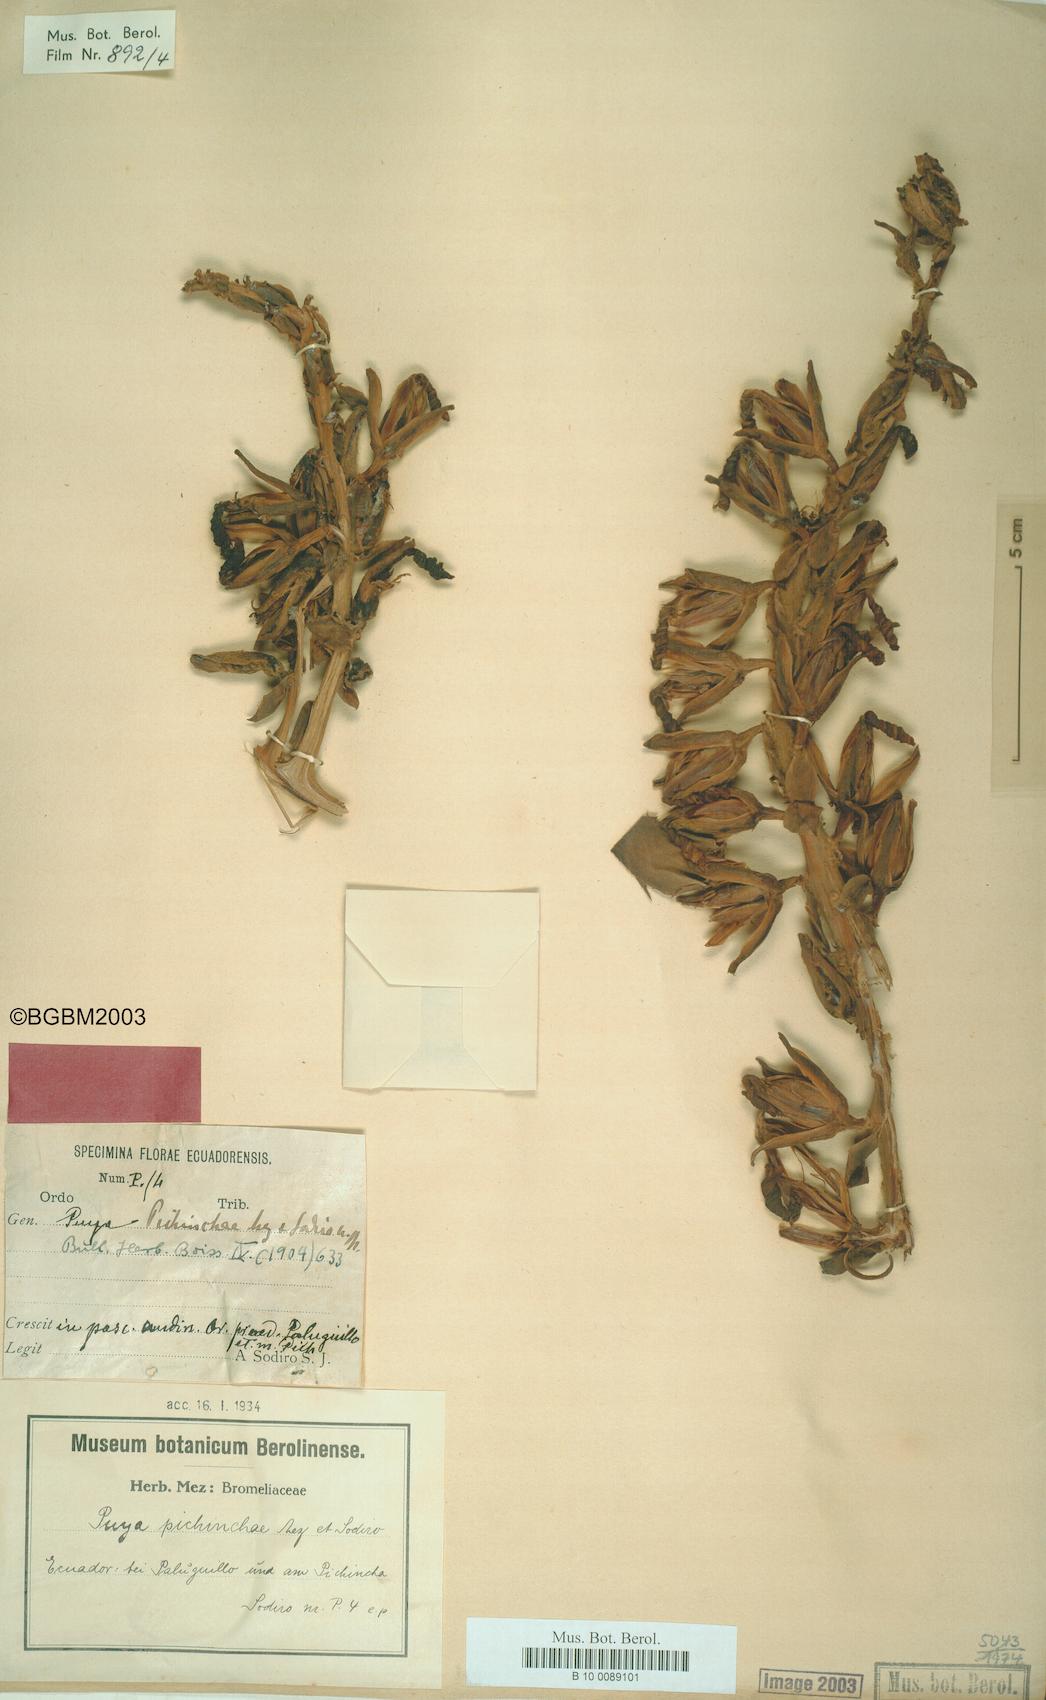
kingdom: Plantae
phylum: Tracheophyta
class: Liliopsida
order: Poales
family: Bromeliaceae
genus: Puya
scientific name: Puya pichinchae
